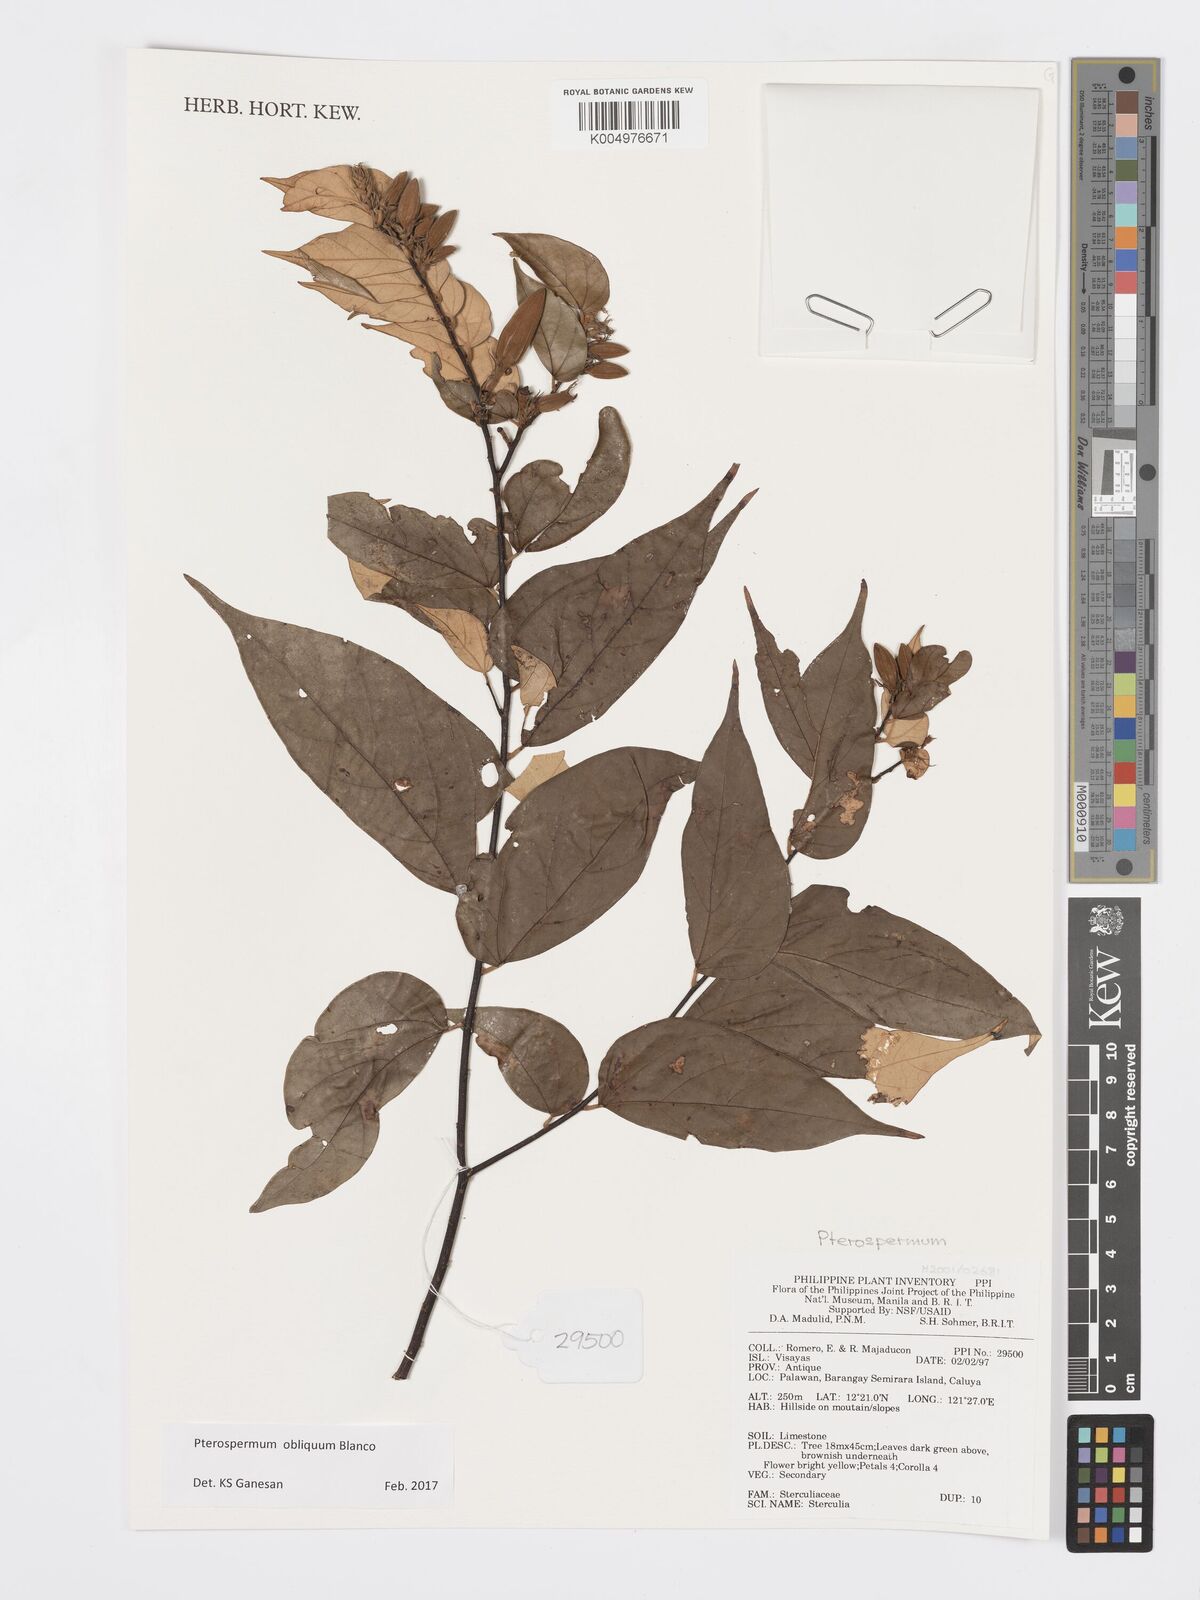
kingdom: Plantae
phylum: Tracheophyta
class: Magnoliopsida
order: Malvales
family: Malvaceae
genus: Pterospermum
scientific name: Pterospermum obliquum
